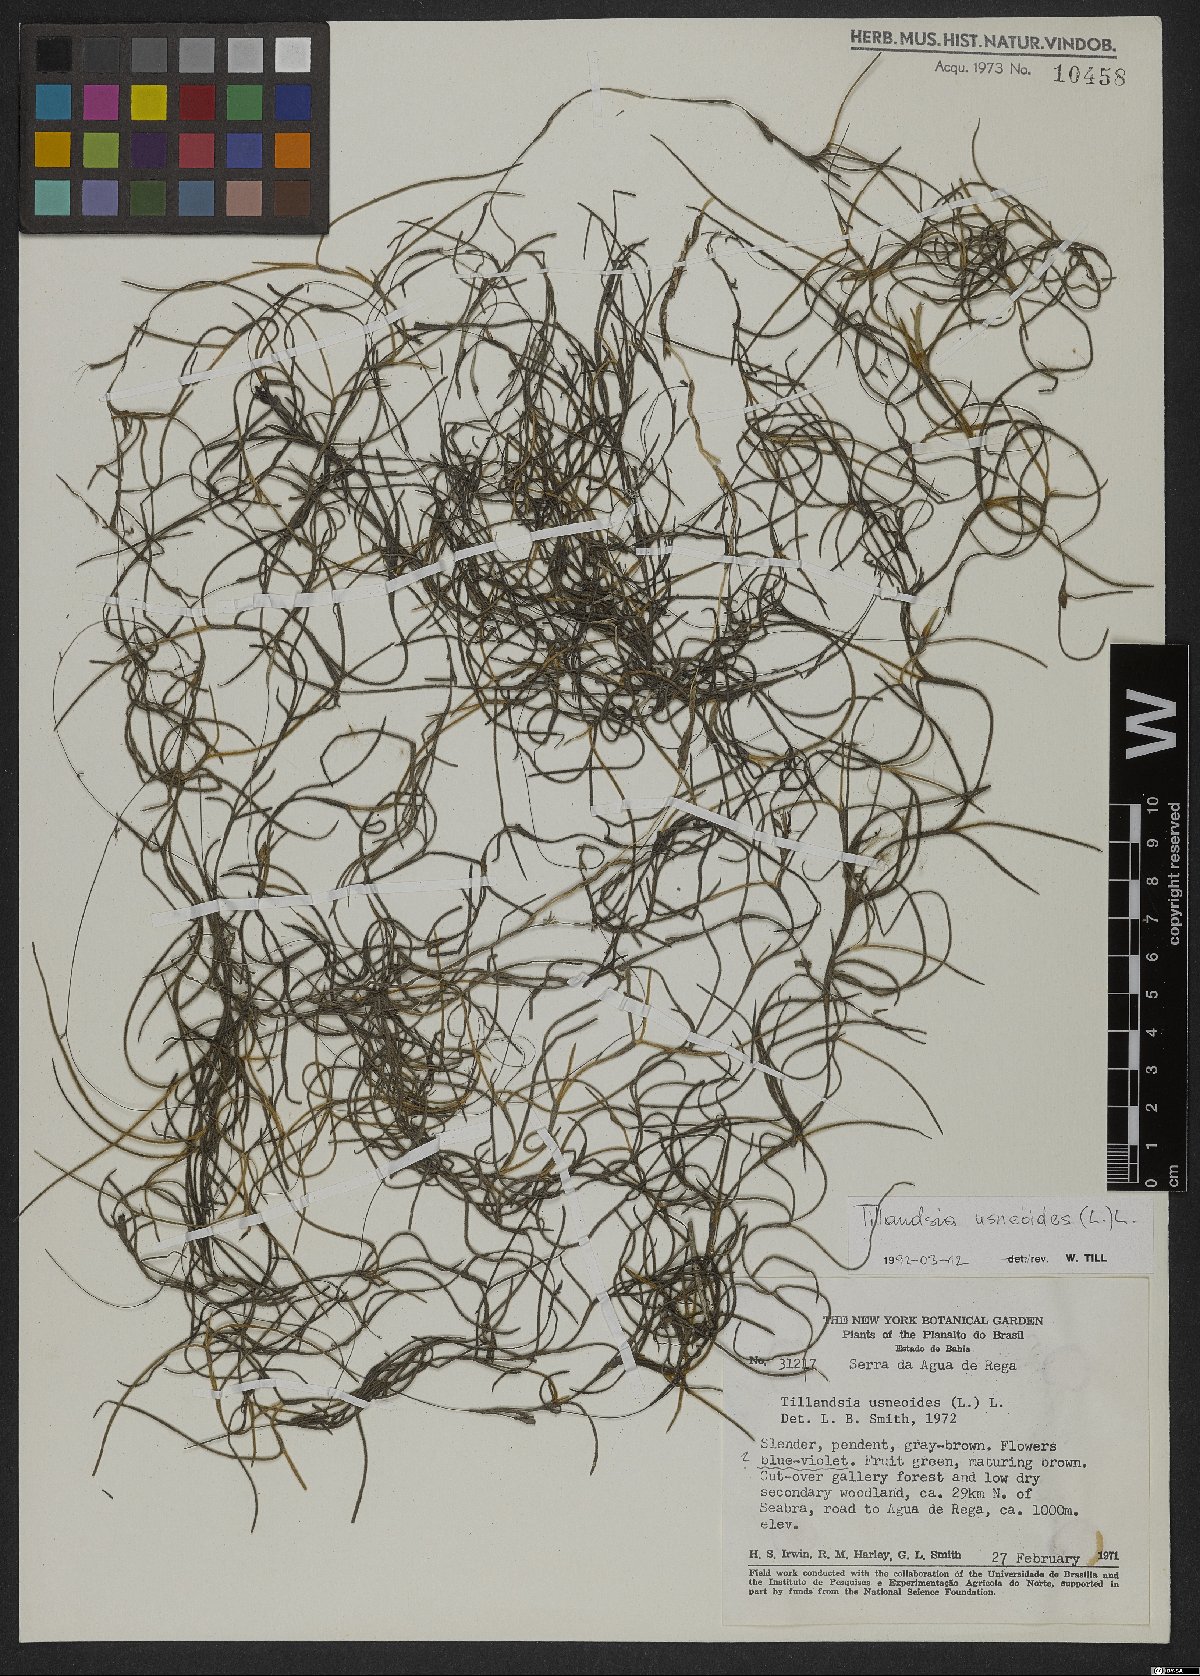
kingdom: Plantae
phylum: Tracheophyta
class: Liliopsida
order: Poales
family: Bromeliaceae
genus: Tillandsia
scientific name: Tillandsia usneoides
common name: Spanish moss
